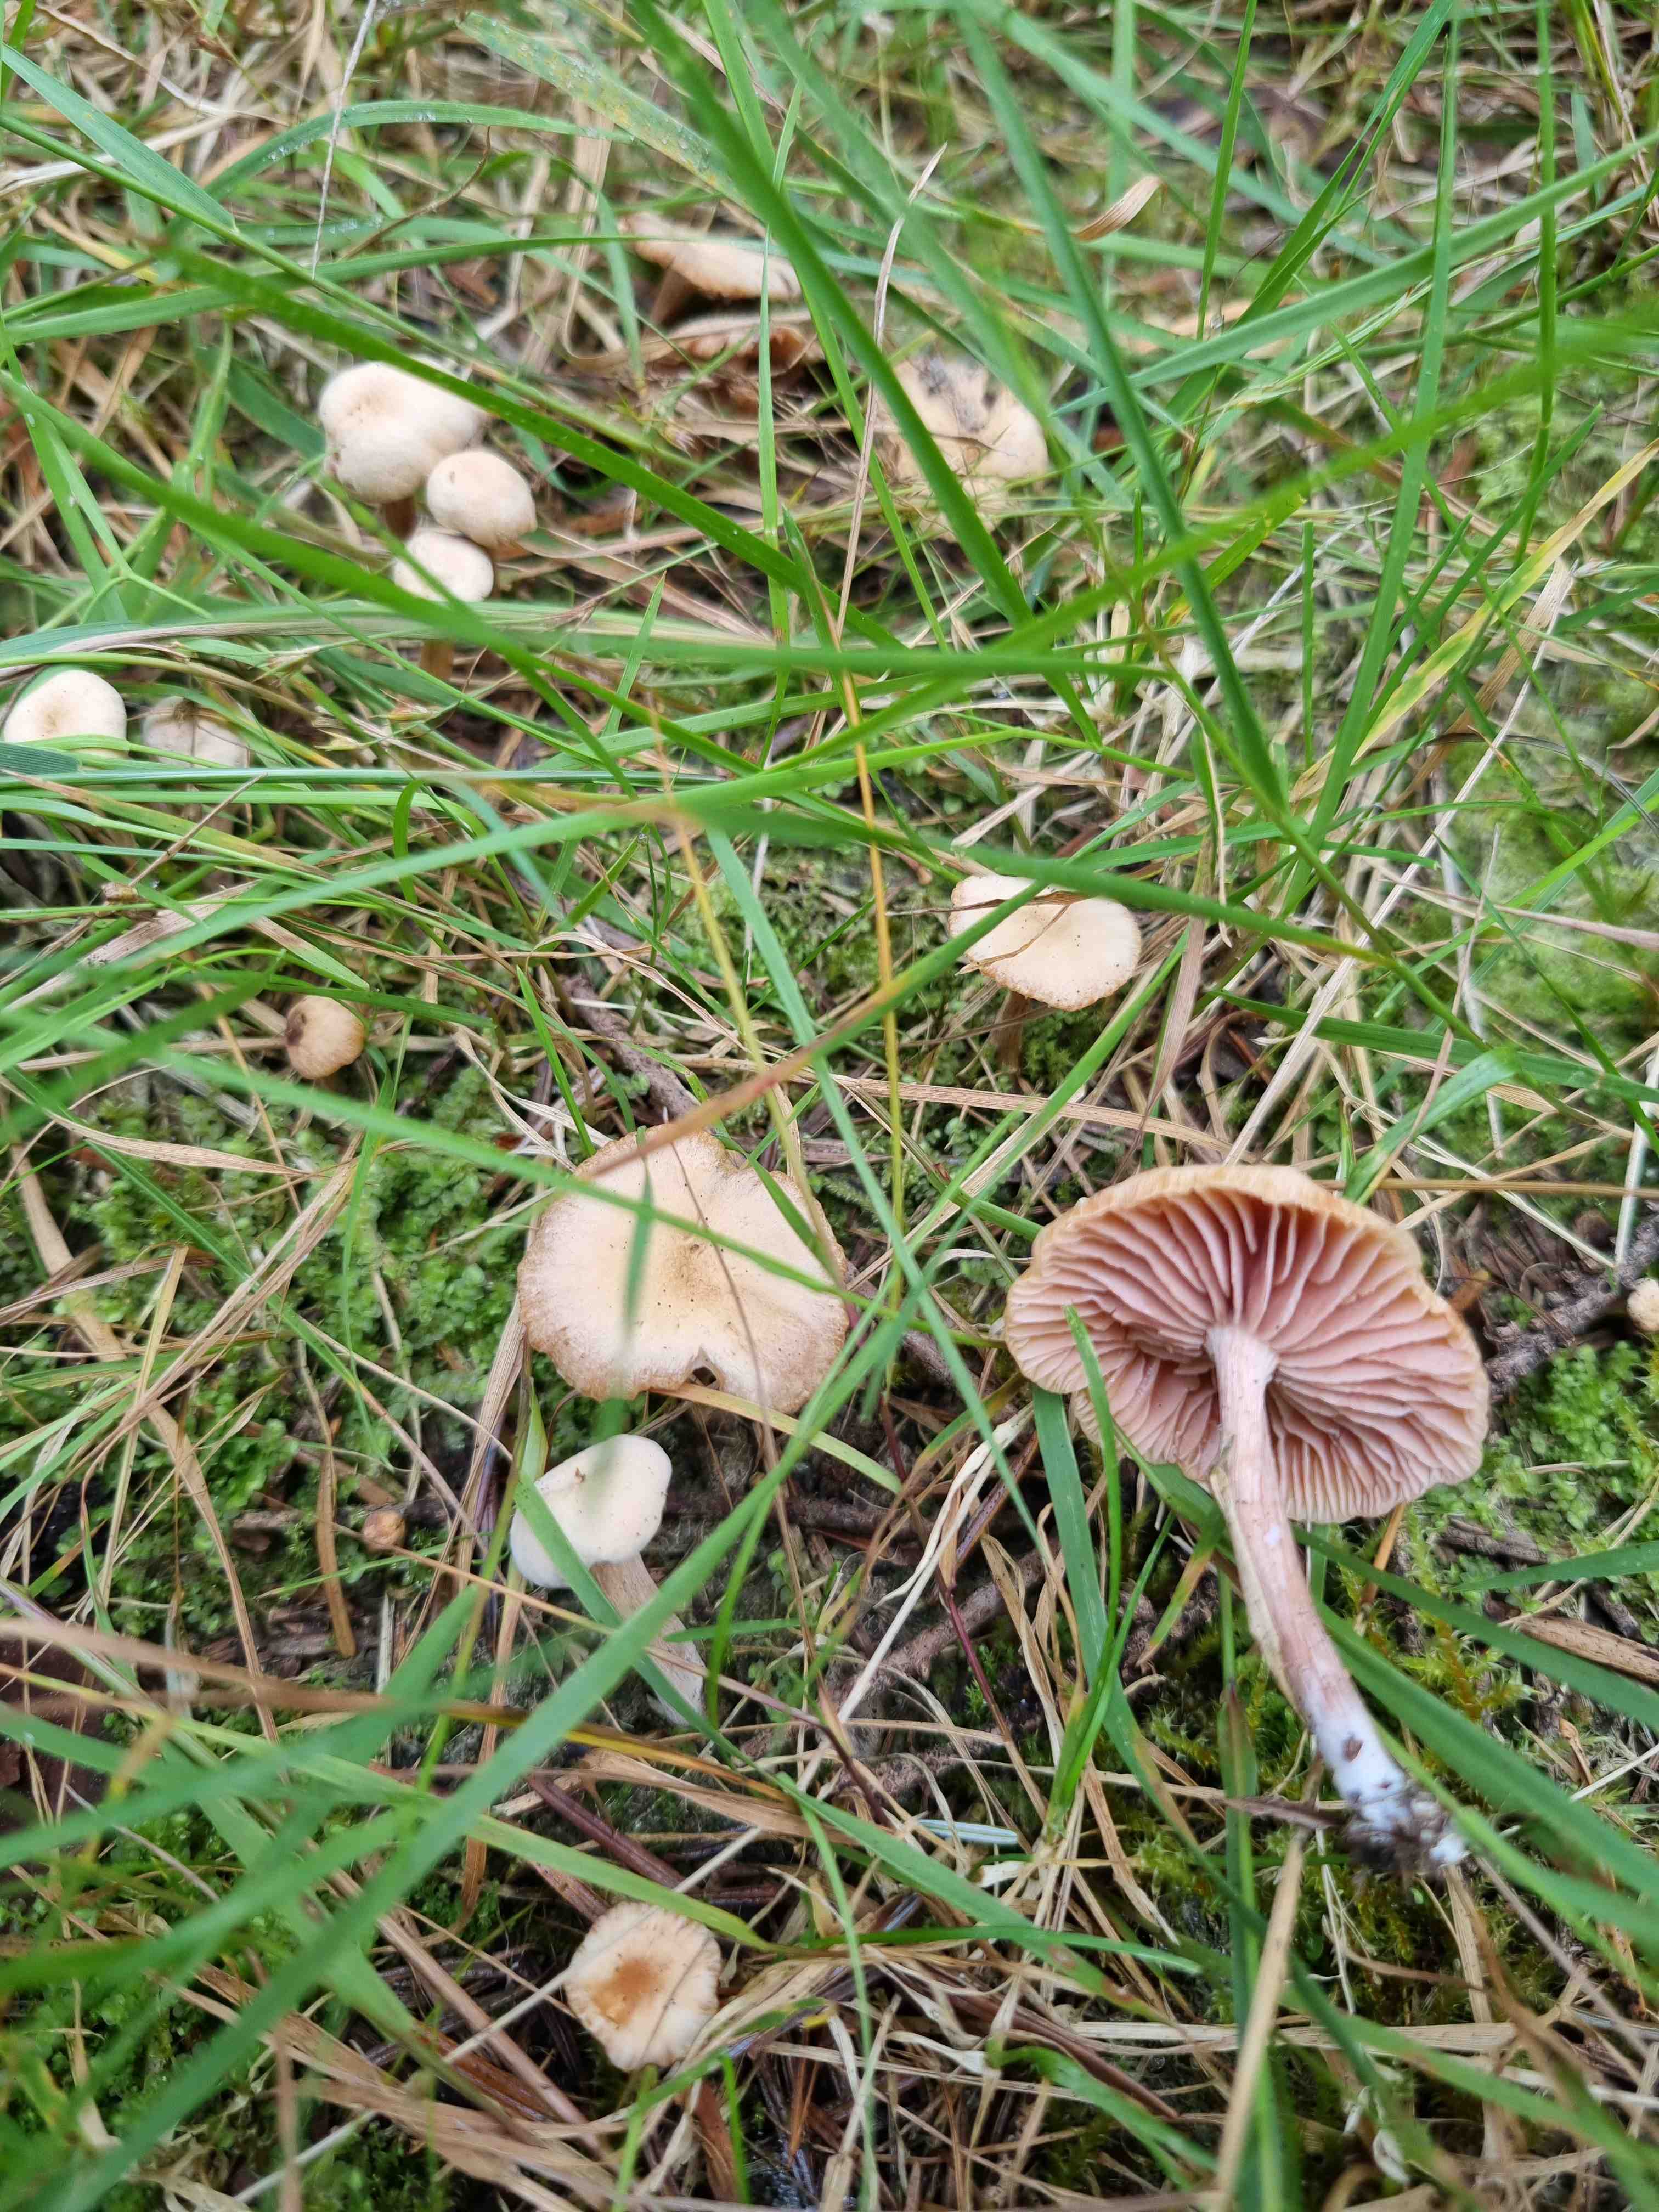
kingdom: Fungi
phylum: Basidiomycota
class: Agaricomycetes
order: Agaricales
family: Hydnangiaceae
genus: Laccaria
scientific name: Laccaria proxima
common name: stor ametysthat
